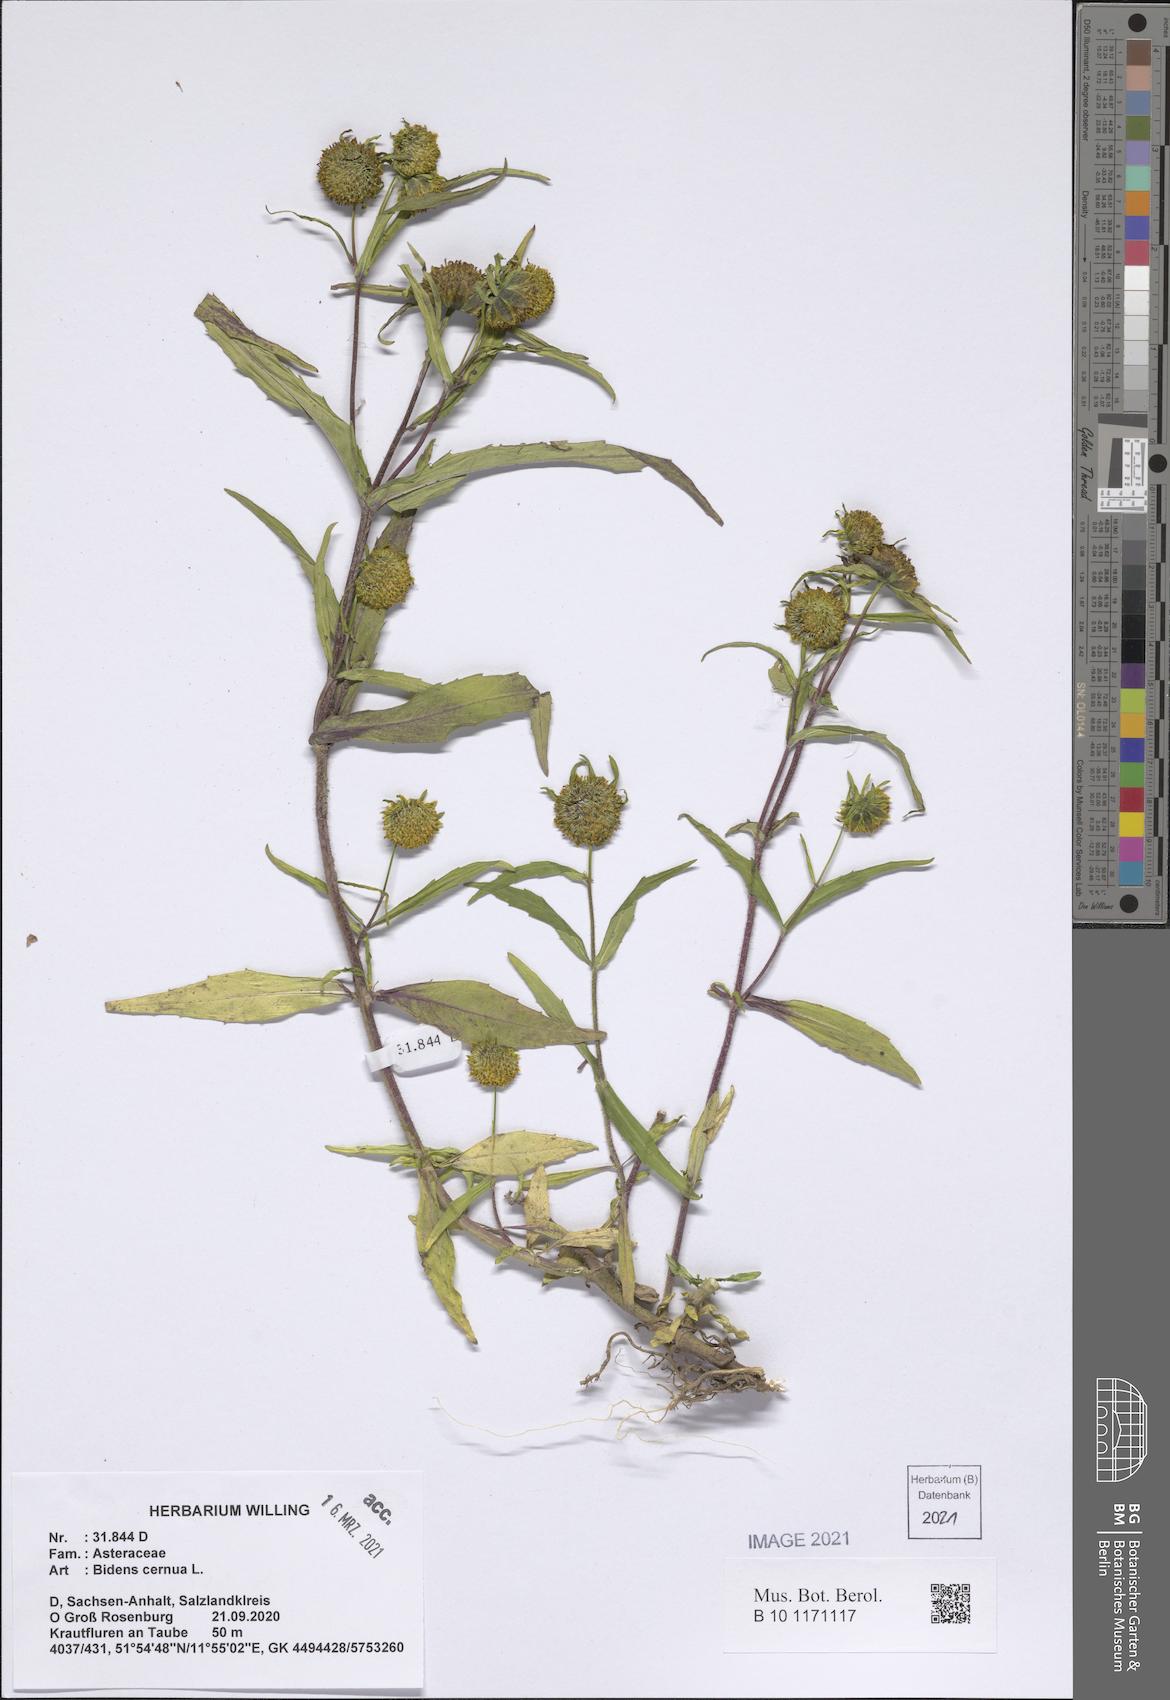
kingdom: Plantae
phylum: Tracheophyta
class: Magnoliopsida
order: Asterales
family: Asteraceae
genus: Bidens
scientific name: Bidens cernua
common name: Nodding bur-marigold
